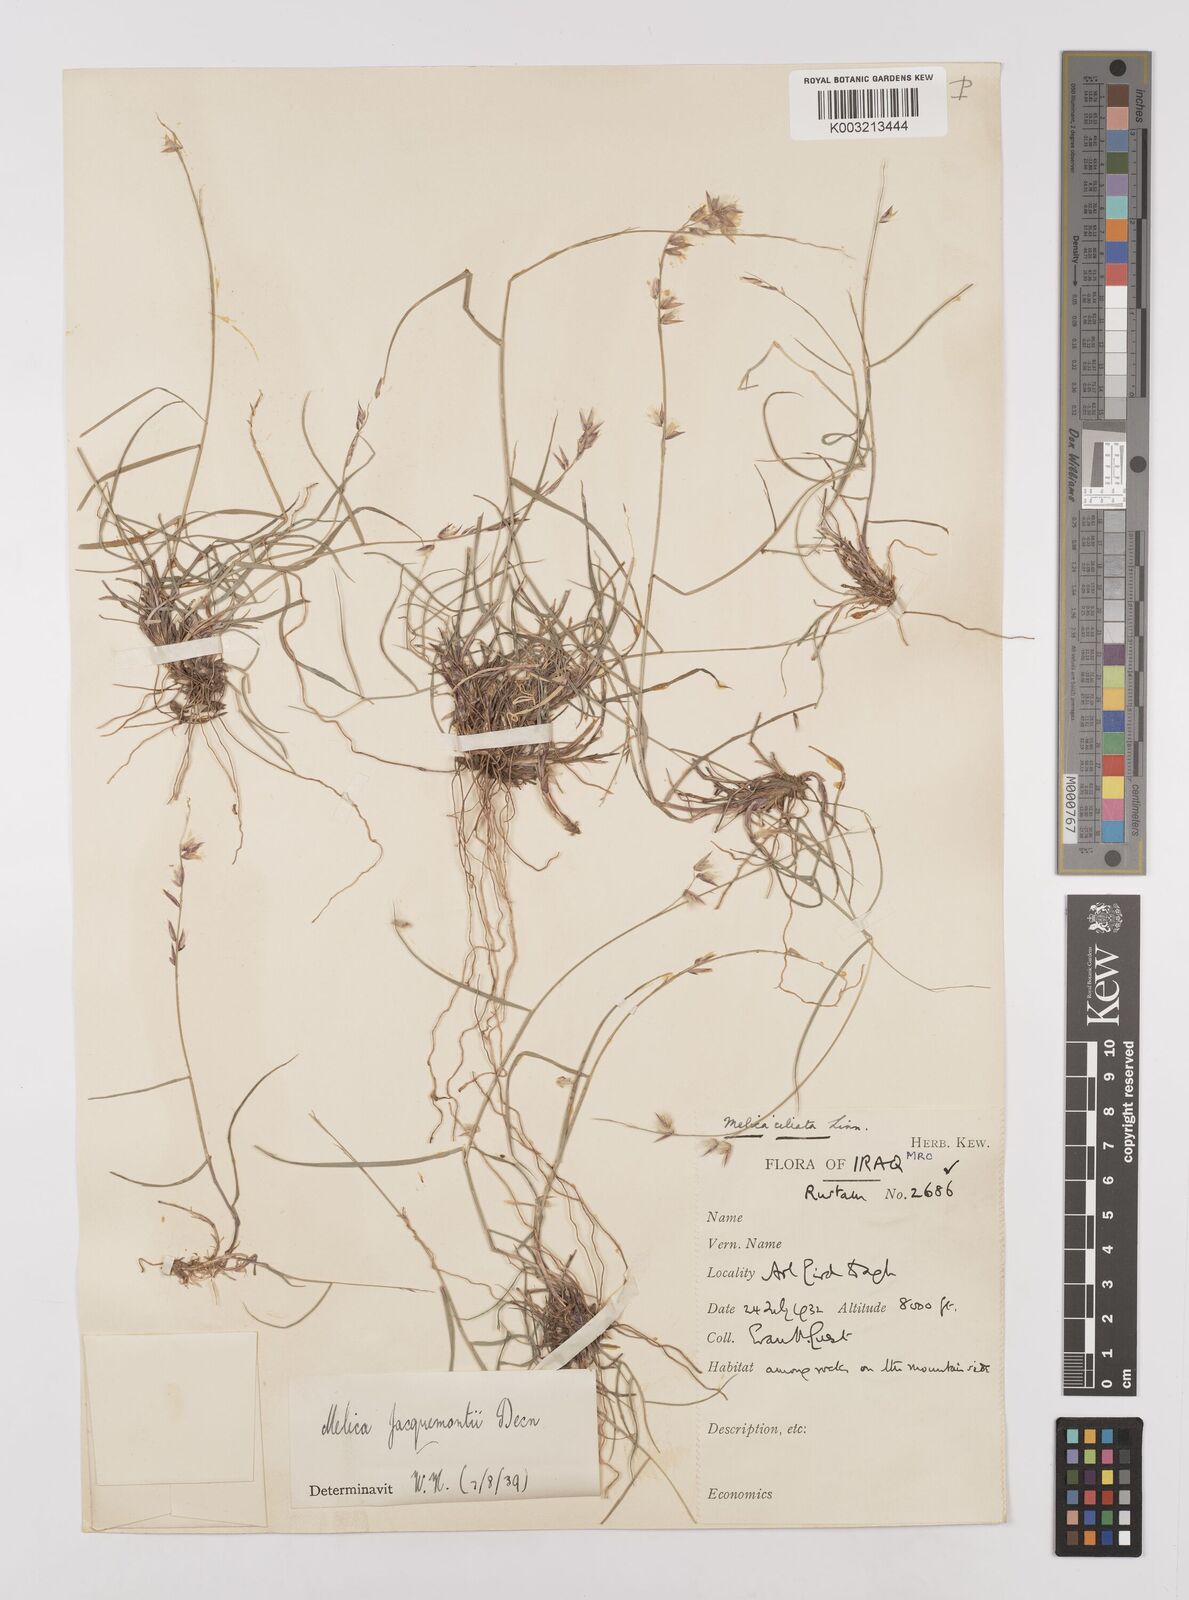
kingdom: Plantae
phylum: Tracheophyta
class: Liliopsida
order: Poales
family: Poaceae
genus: Melica
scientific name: Melica persica
